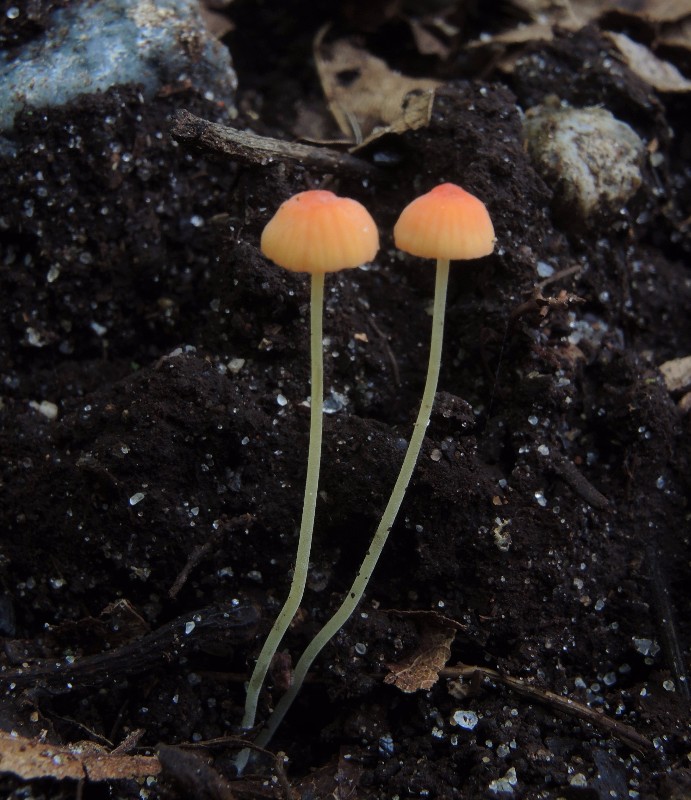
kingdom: Fungi
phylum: Basidiomycota
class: Agaricomycetes
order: Agaricales
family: Mycenaceae
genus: Mycena
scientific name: Mycena acicula
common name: orange huesvamp
